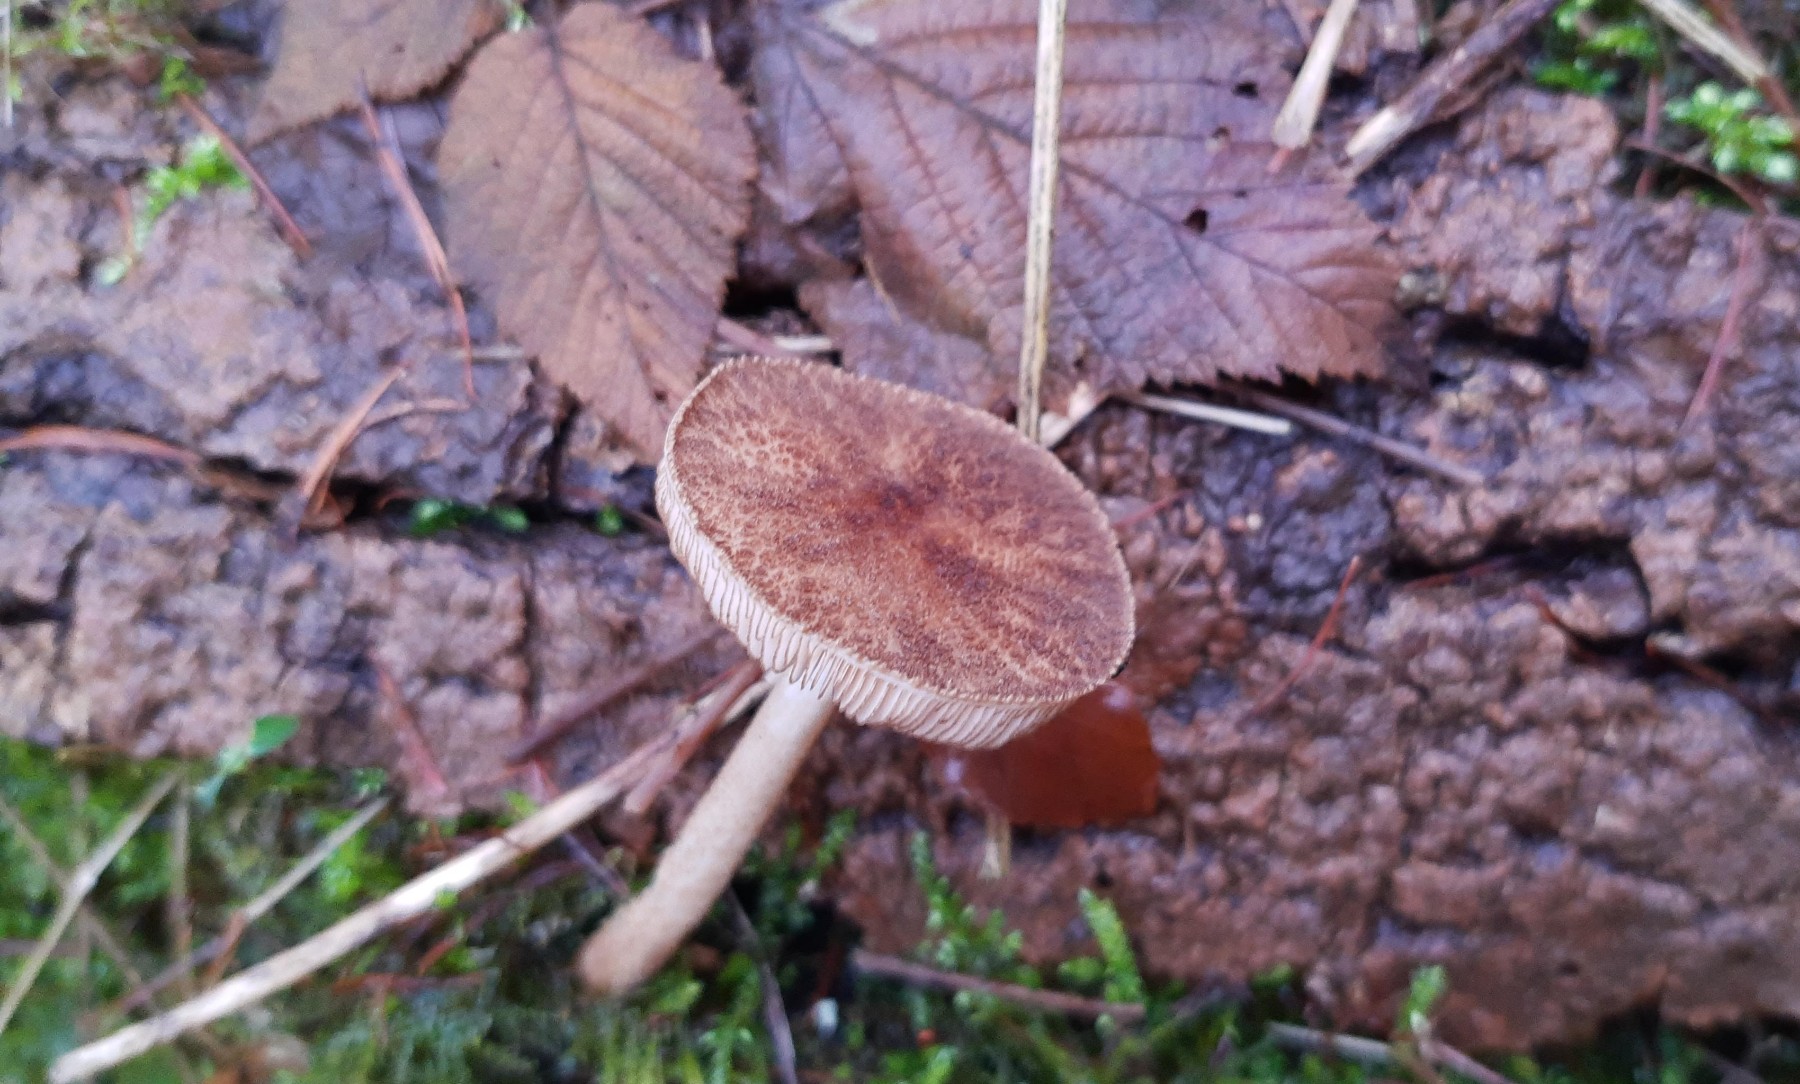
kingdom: Fungi
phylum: Basidiomycota
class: Agaricomycetes
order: Agaricales
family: Pluteaceae
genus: Pluteus
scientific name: Pluteus umbrosus
